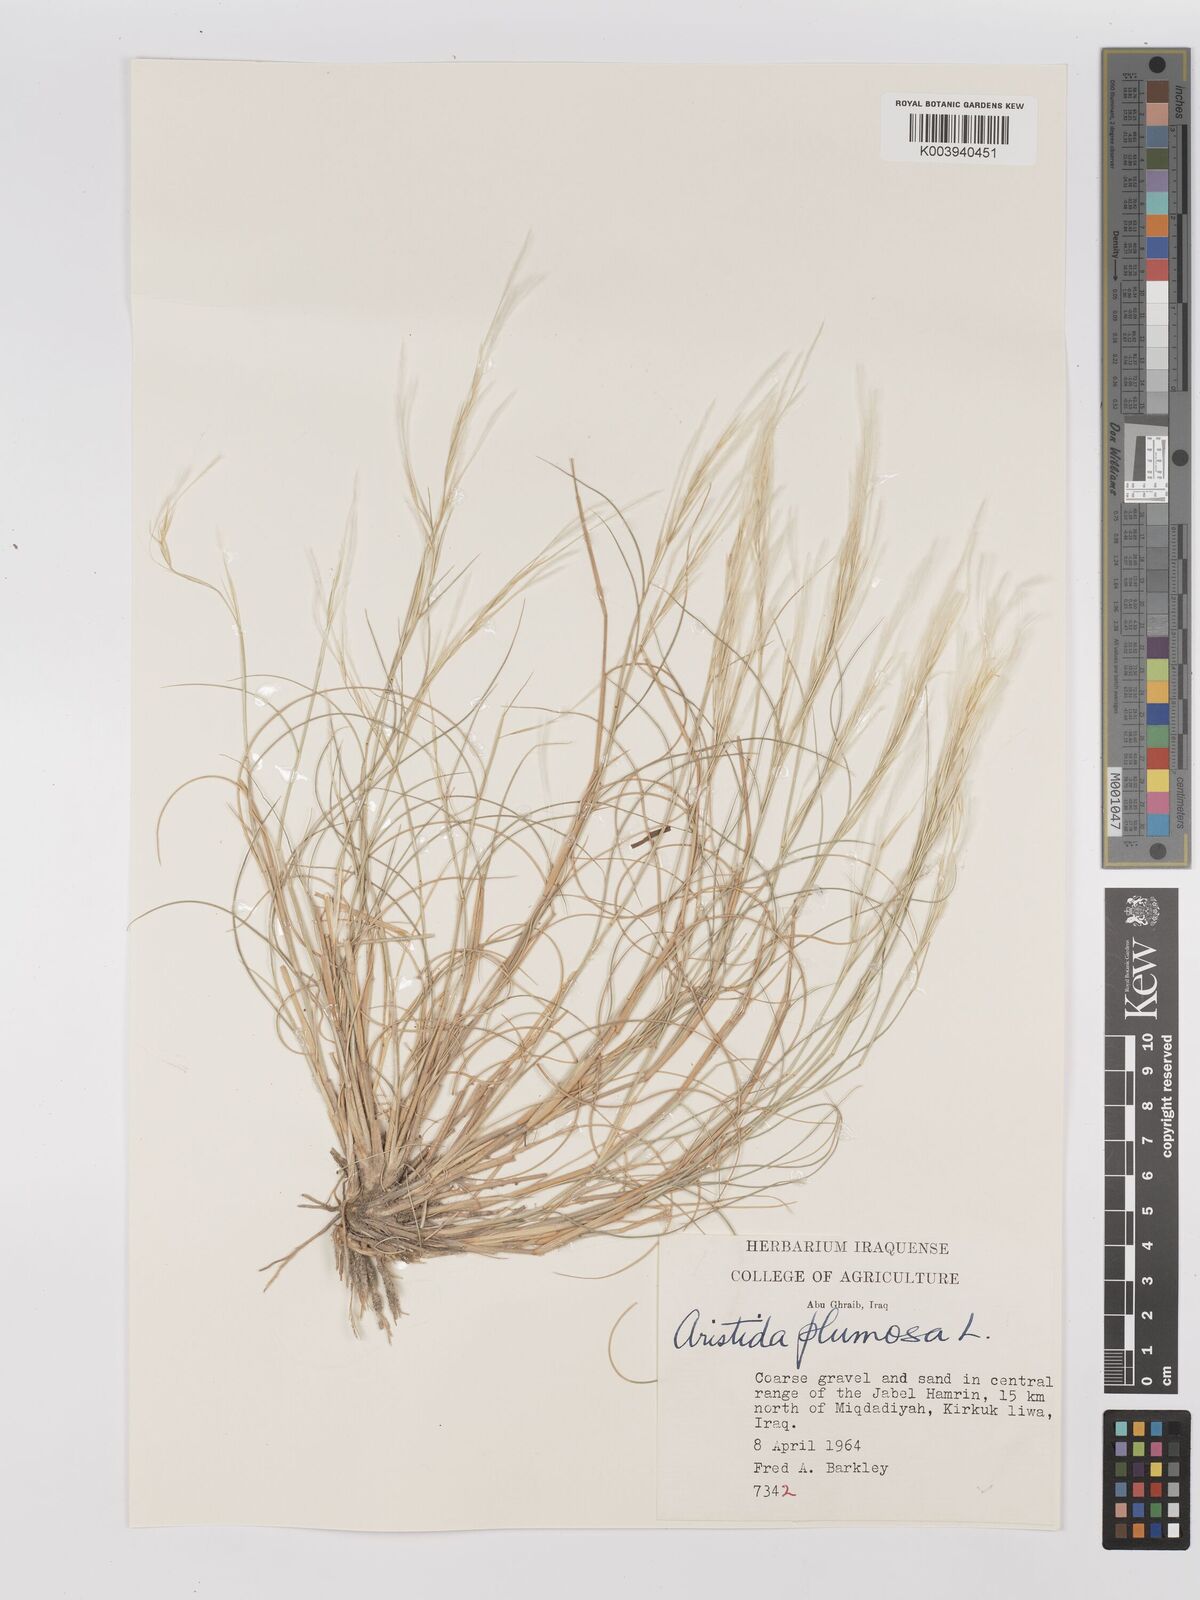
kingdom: Plantae
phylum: Tracheophyta
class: Liliopsida
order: Poales
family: Poaceae
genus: Stipagrostis
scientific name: Stipagrostis plumosa
